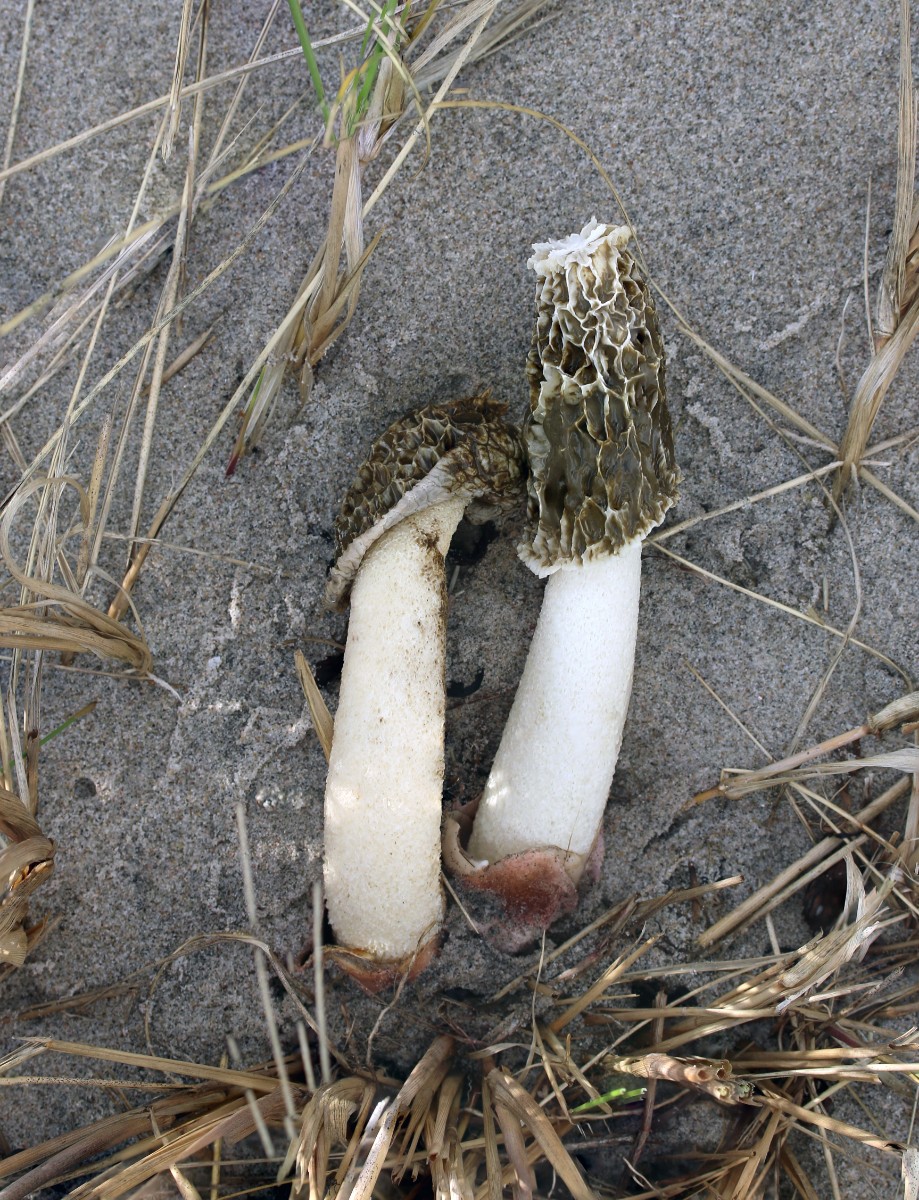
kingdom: Fungi
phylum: Basidiomycota
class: Agaricomycetes
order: Phallales
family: Phallaceae
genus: Phallus
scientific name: Phallus hadriani
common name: sand-stinksvamp
